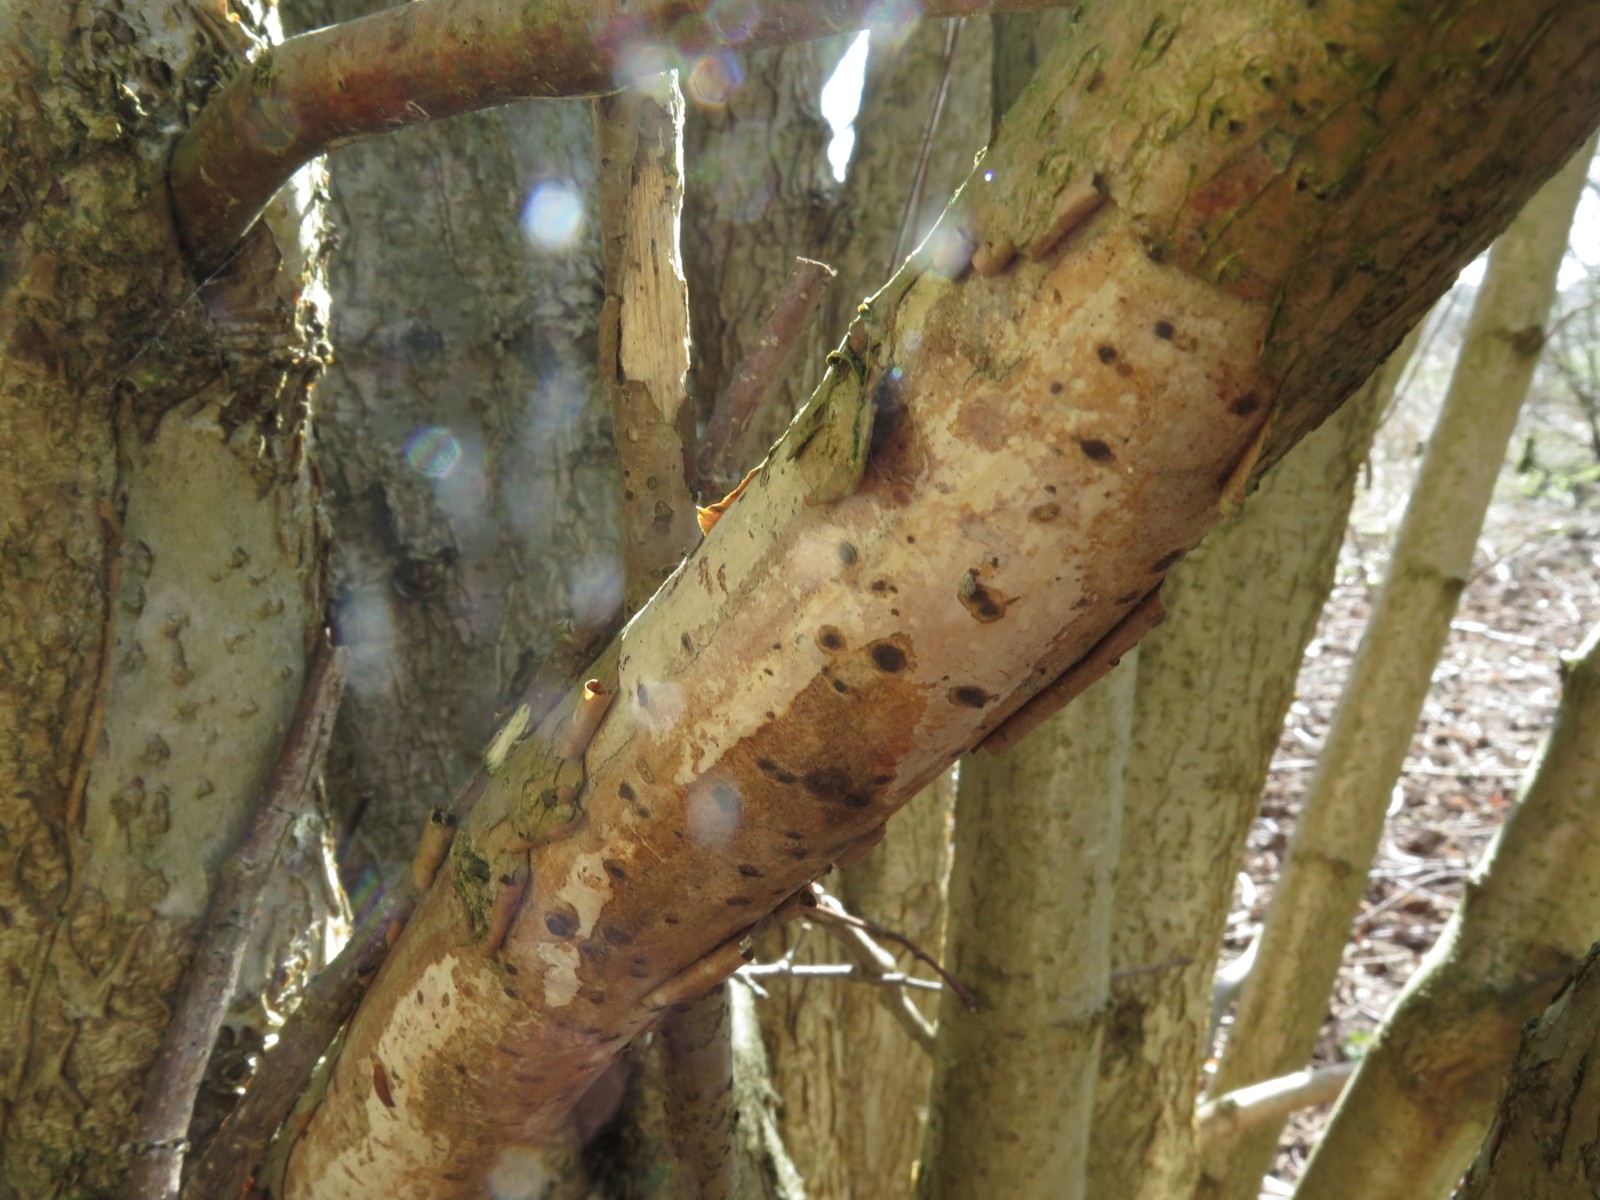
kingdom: Fungi
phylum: Basidiomycota
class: Agaricomycetes
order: Corticiales
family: Vuilleminiaceae
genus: Vuilleminia
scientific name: Vuilleminia coryli
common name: hassel-barksprænger
